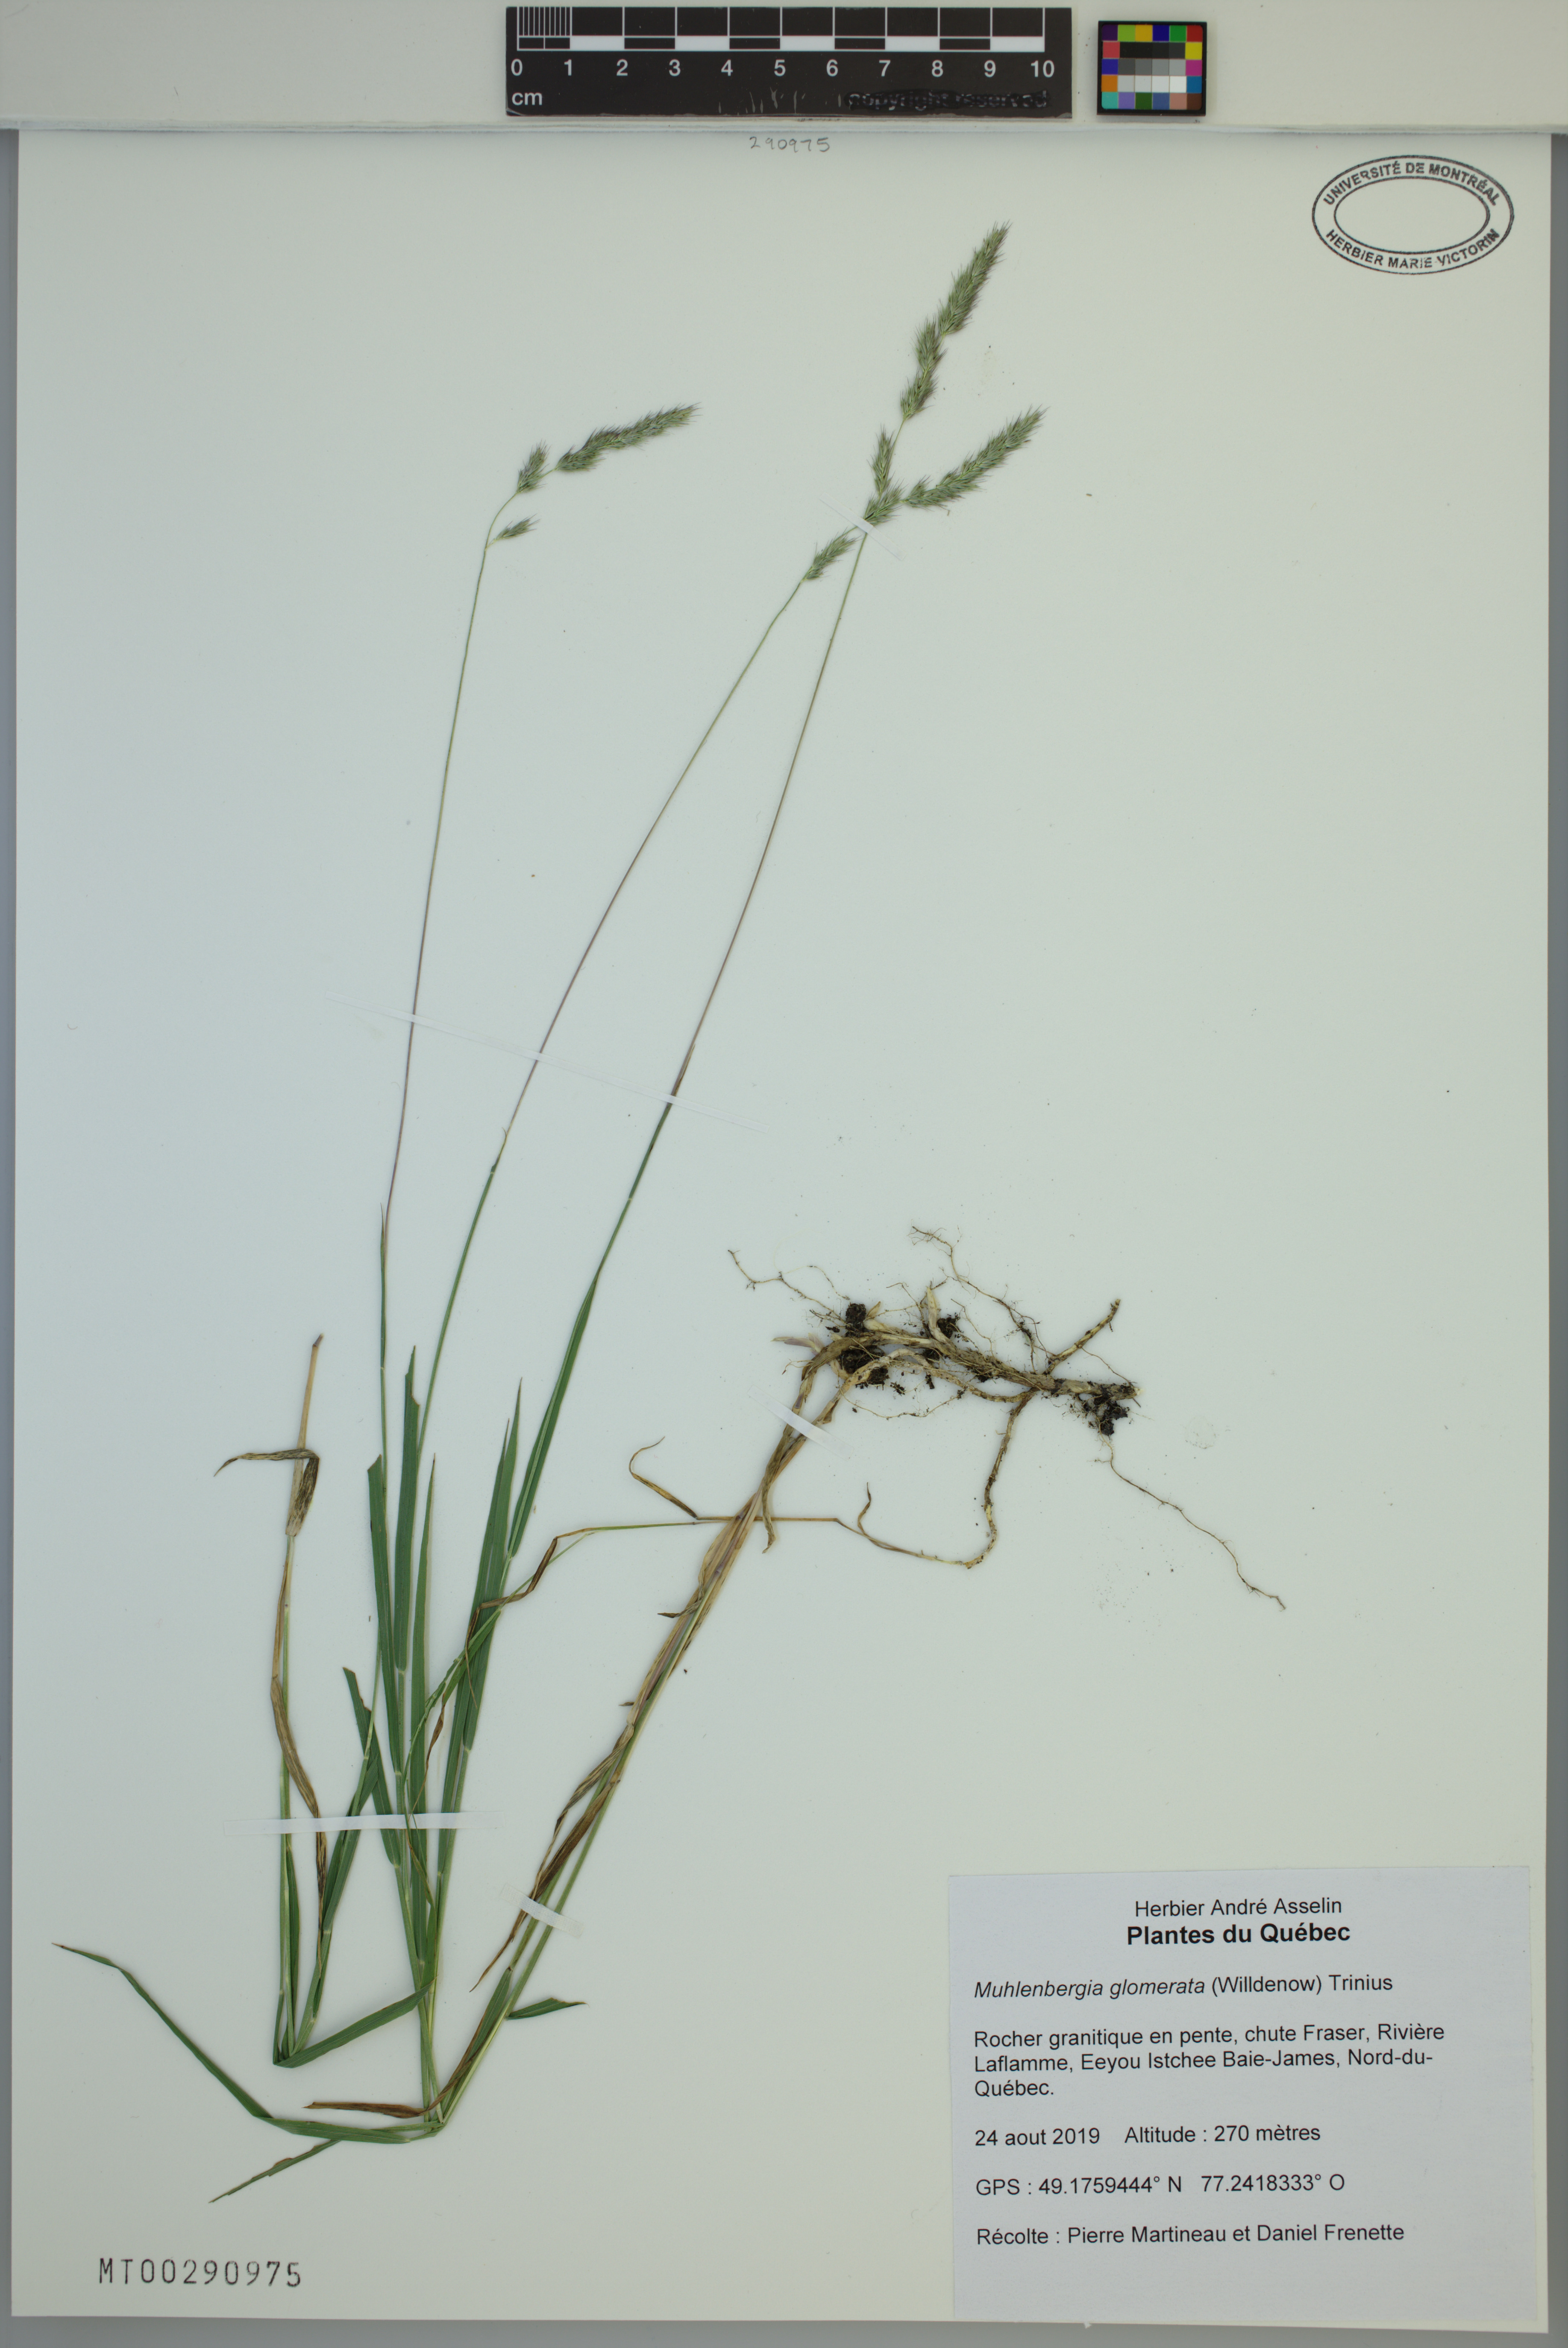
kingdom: Plantae
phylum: Tracheophyta
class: Liliopsida
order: Poales
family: Poaceae
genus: Muhlenbergia
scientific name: Muhlenbergia glomerata
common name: Bog muhly
